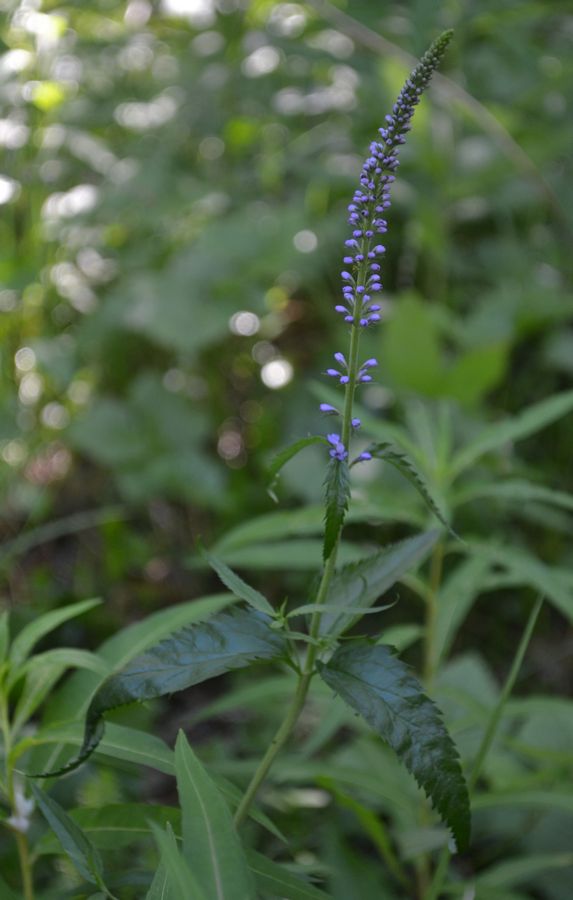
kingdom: Plantae
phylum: Tracheophyta
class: Magnoliopsida
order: Lamiales
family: Plantaginaceae
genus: Veronica
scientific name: Veronica longifolia
